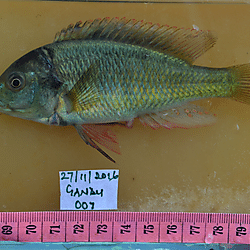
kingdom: Animalia
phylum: Chordata
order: Perciformes
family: Cichlidae
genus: Haplochromis
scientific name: Haplochromis
